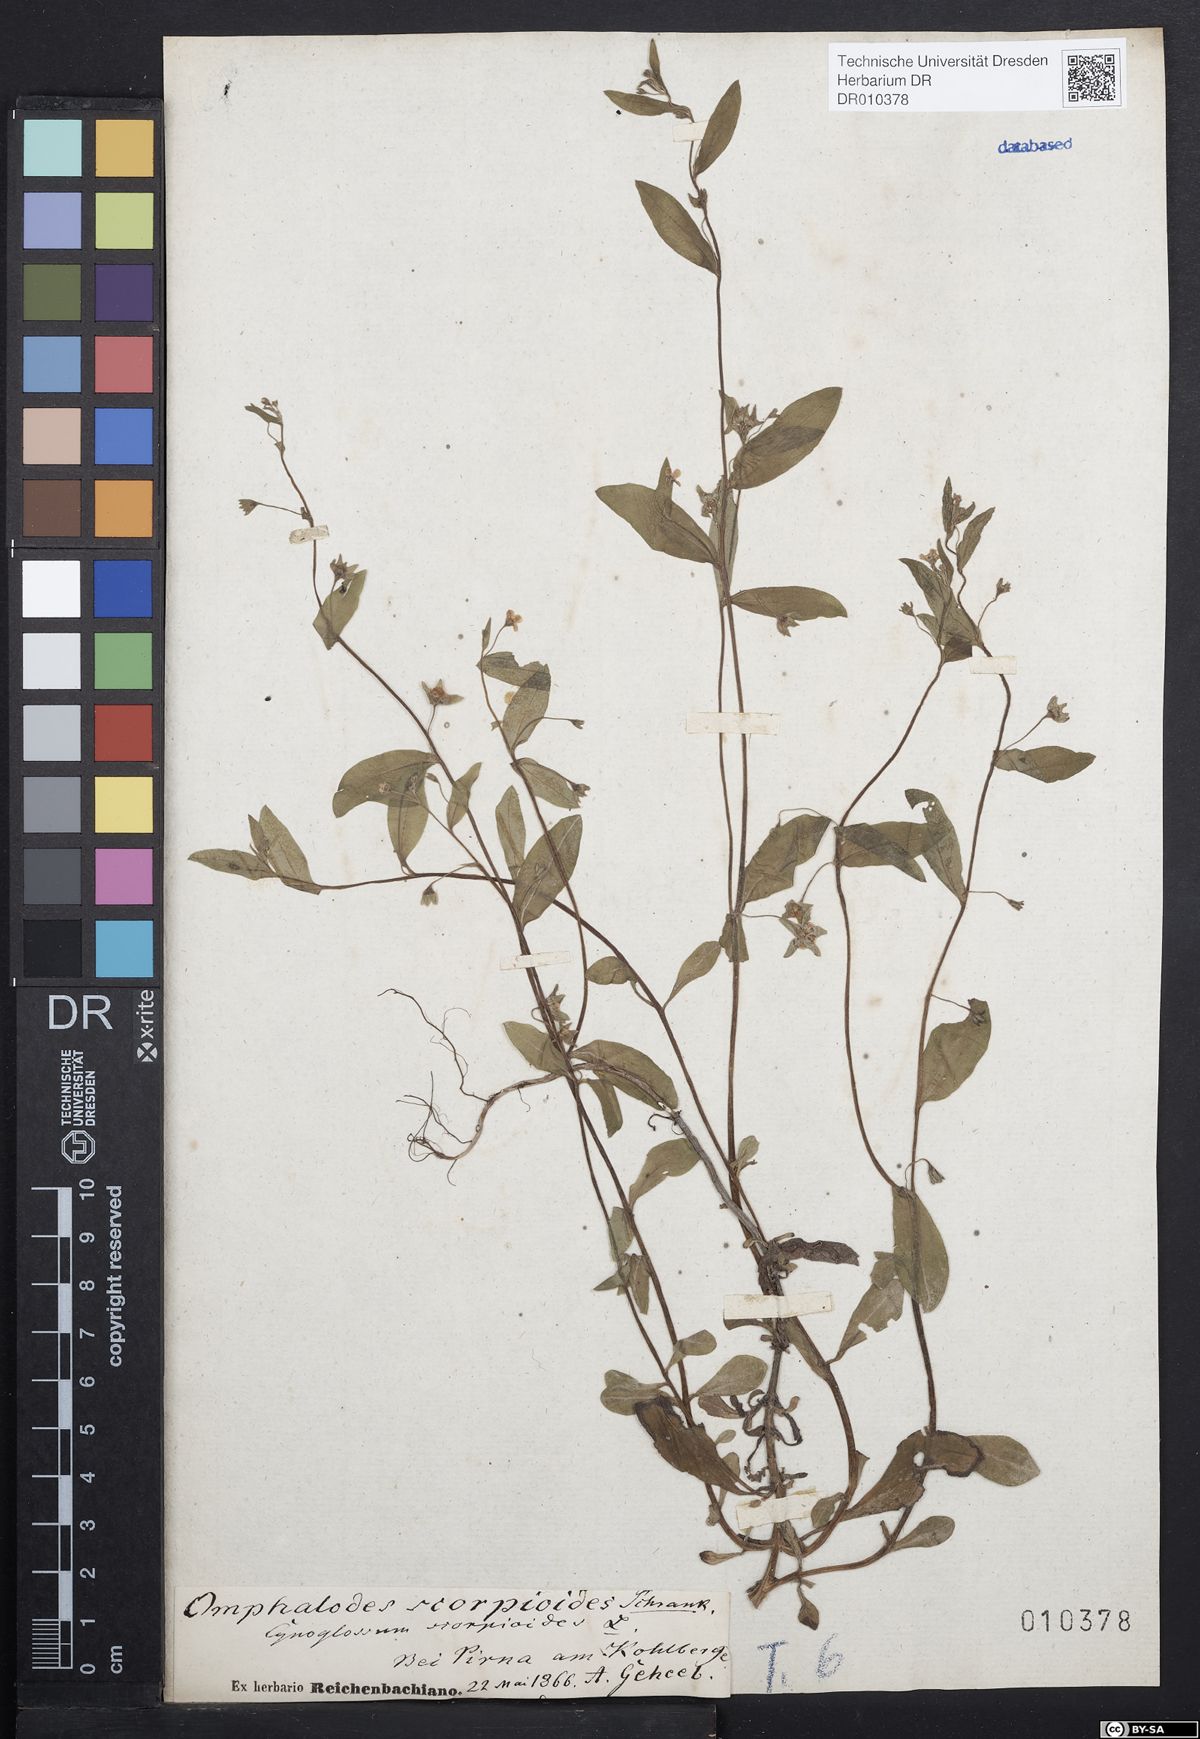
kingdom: Plantae
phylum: Tracheophyta
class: Magnoliopsida
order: Boraginales
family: Boraginaceae
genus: Memoremea
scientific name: Memoremea scorpioides
